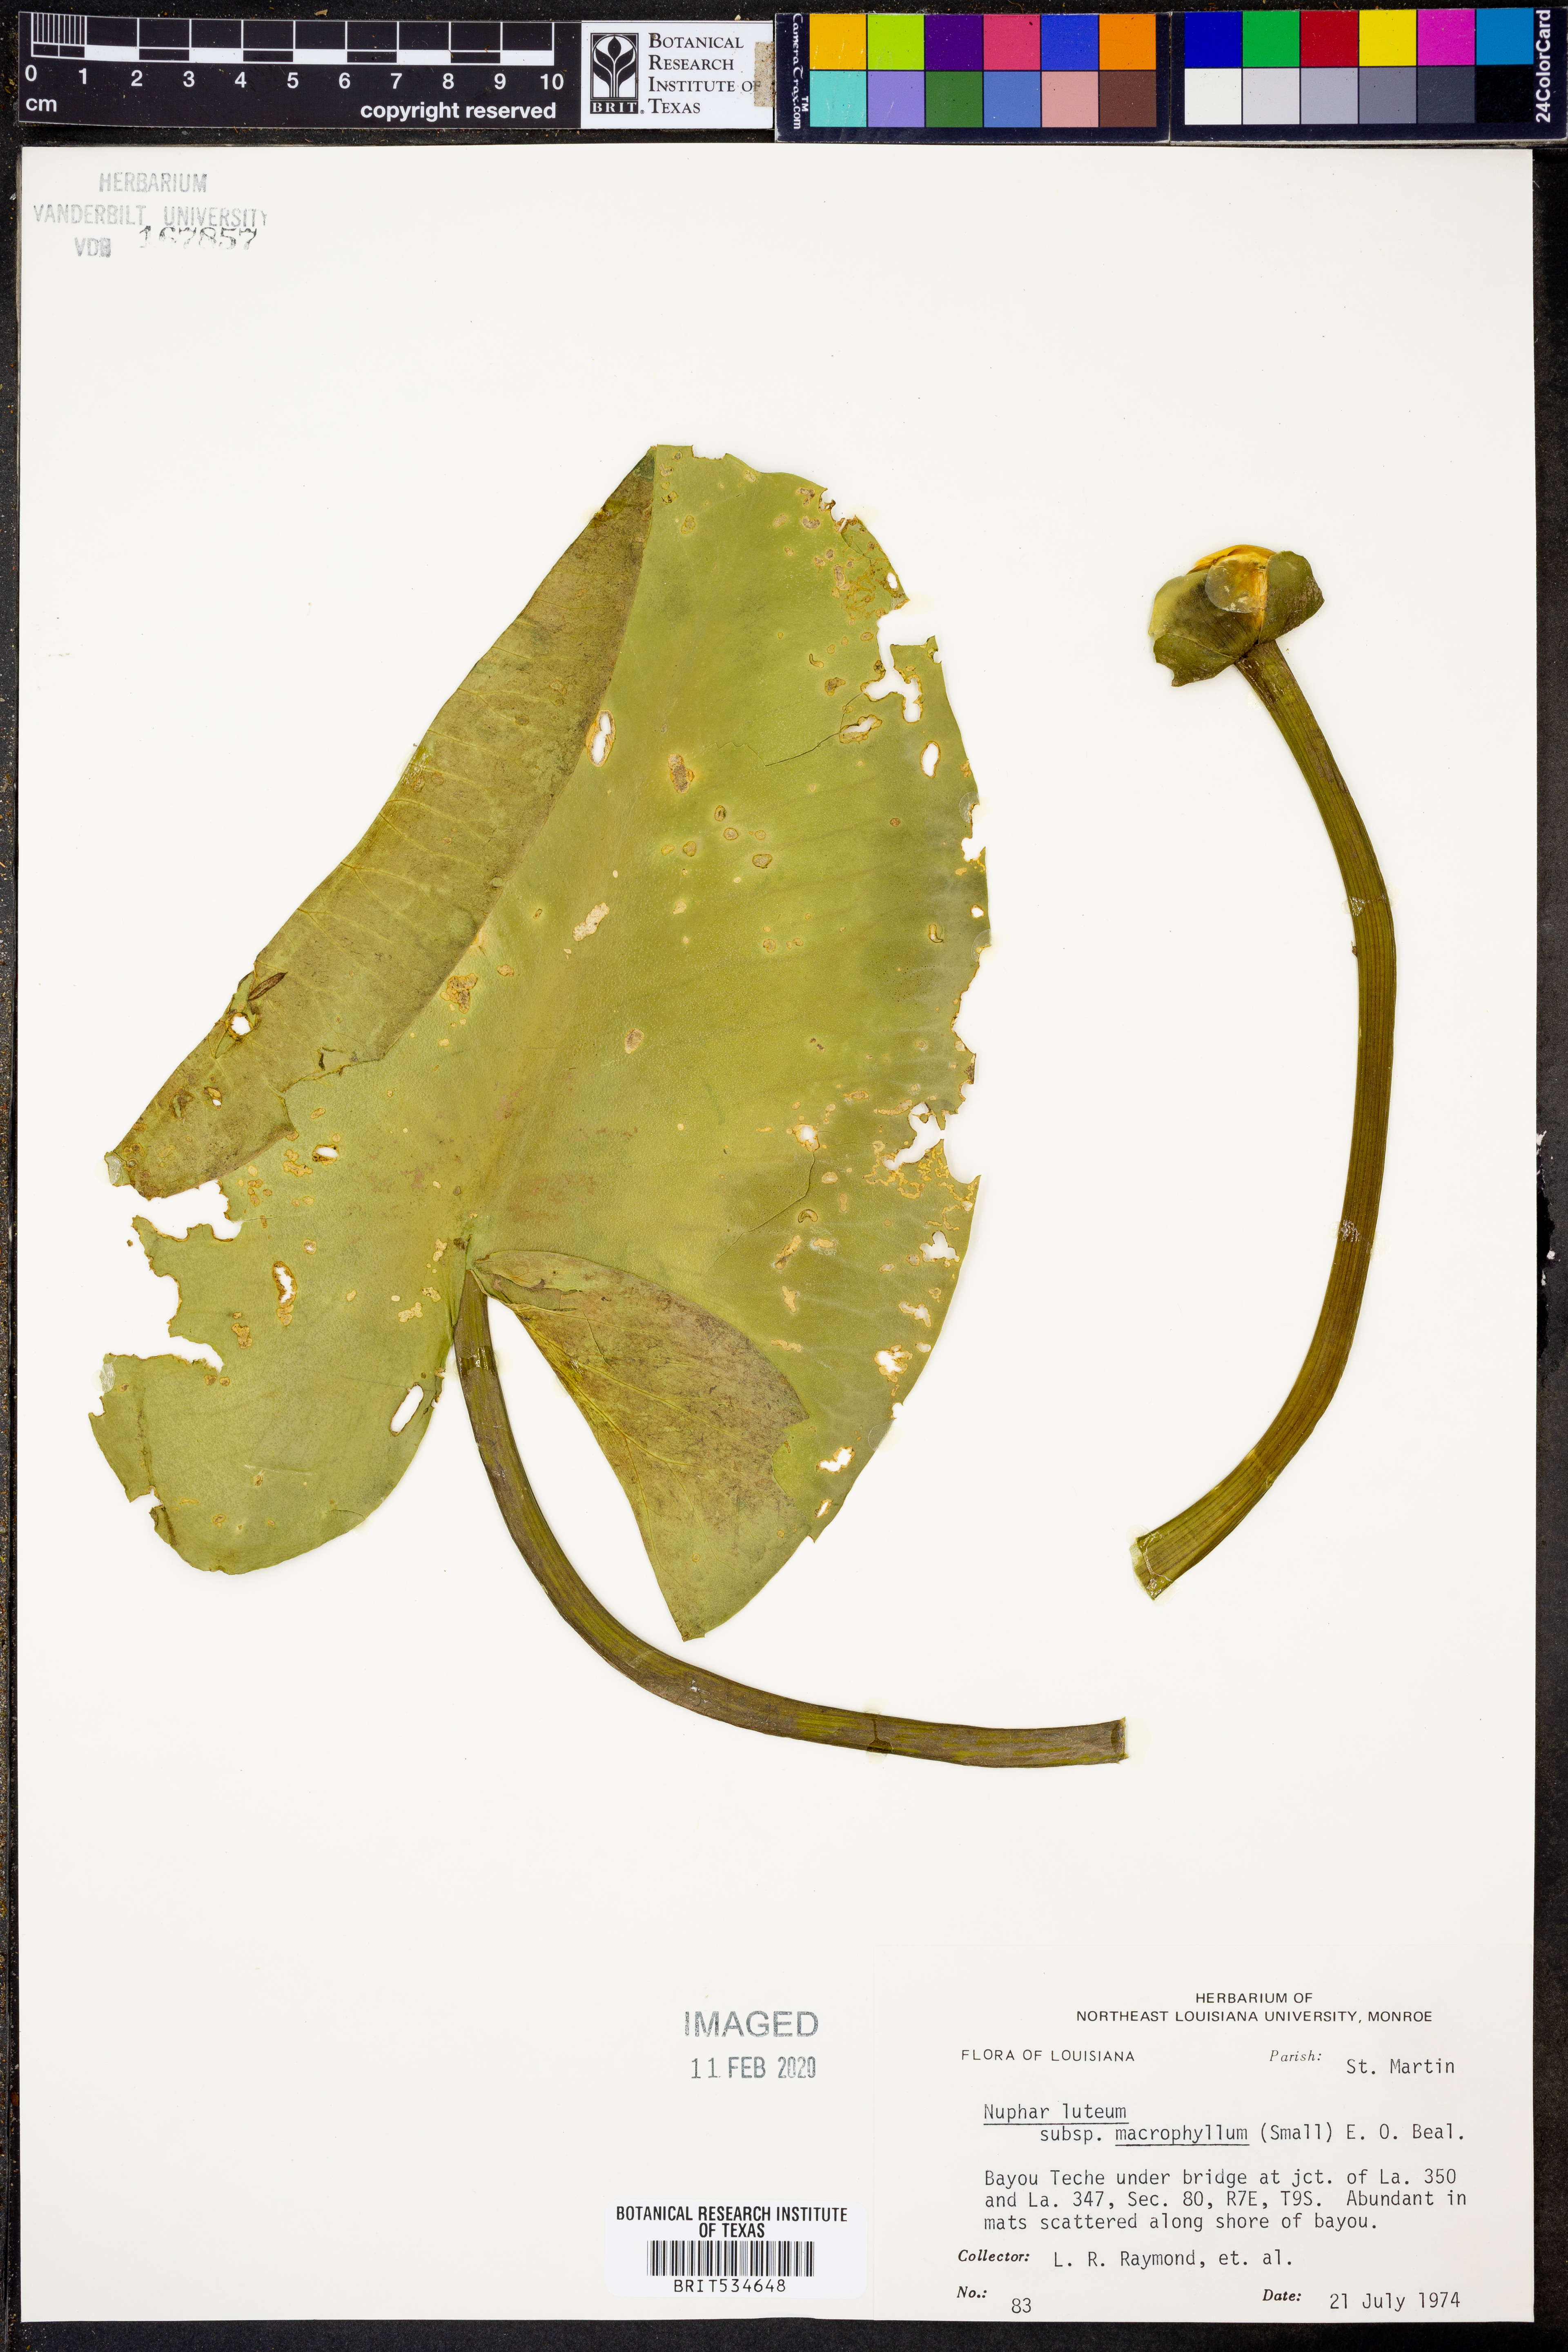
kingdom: Plantae
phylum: Tracheophyta
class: Magnoliopsida
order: Nymphaeales
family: Nymphaeaceae
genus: Nuphar
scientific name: Nuphar advena
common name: Spatter-dock
